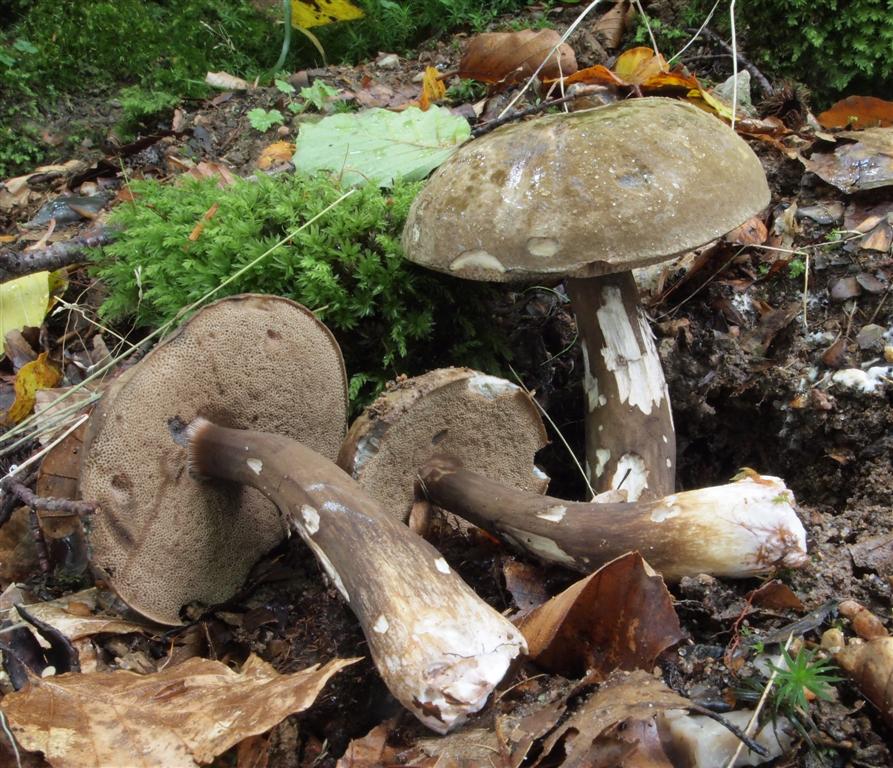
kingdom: Fungi
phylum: Basidiomycota
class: Agaricomycetes
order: Boletales
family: Boletaceae
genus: Porphyrellus
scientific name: Porphyrellus porphyrosporus
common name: sodrørhat
